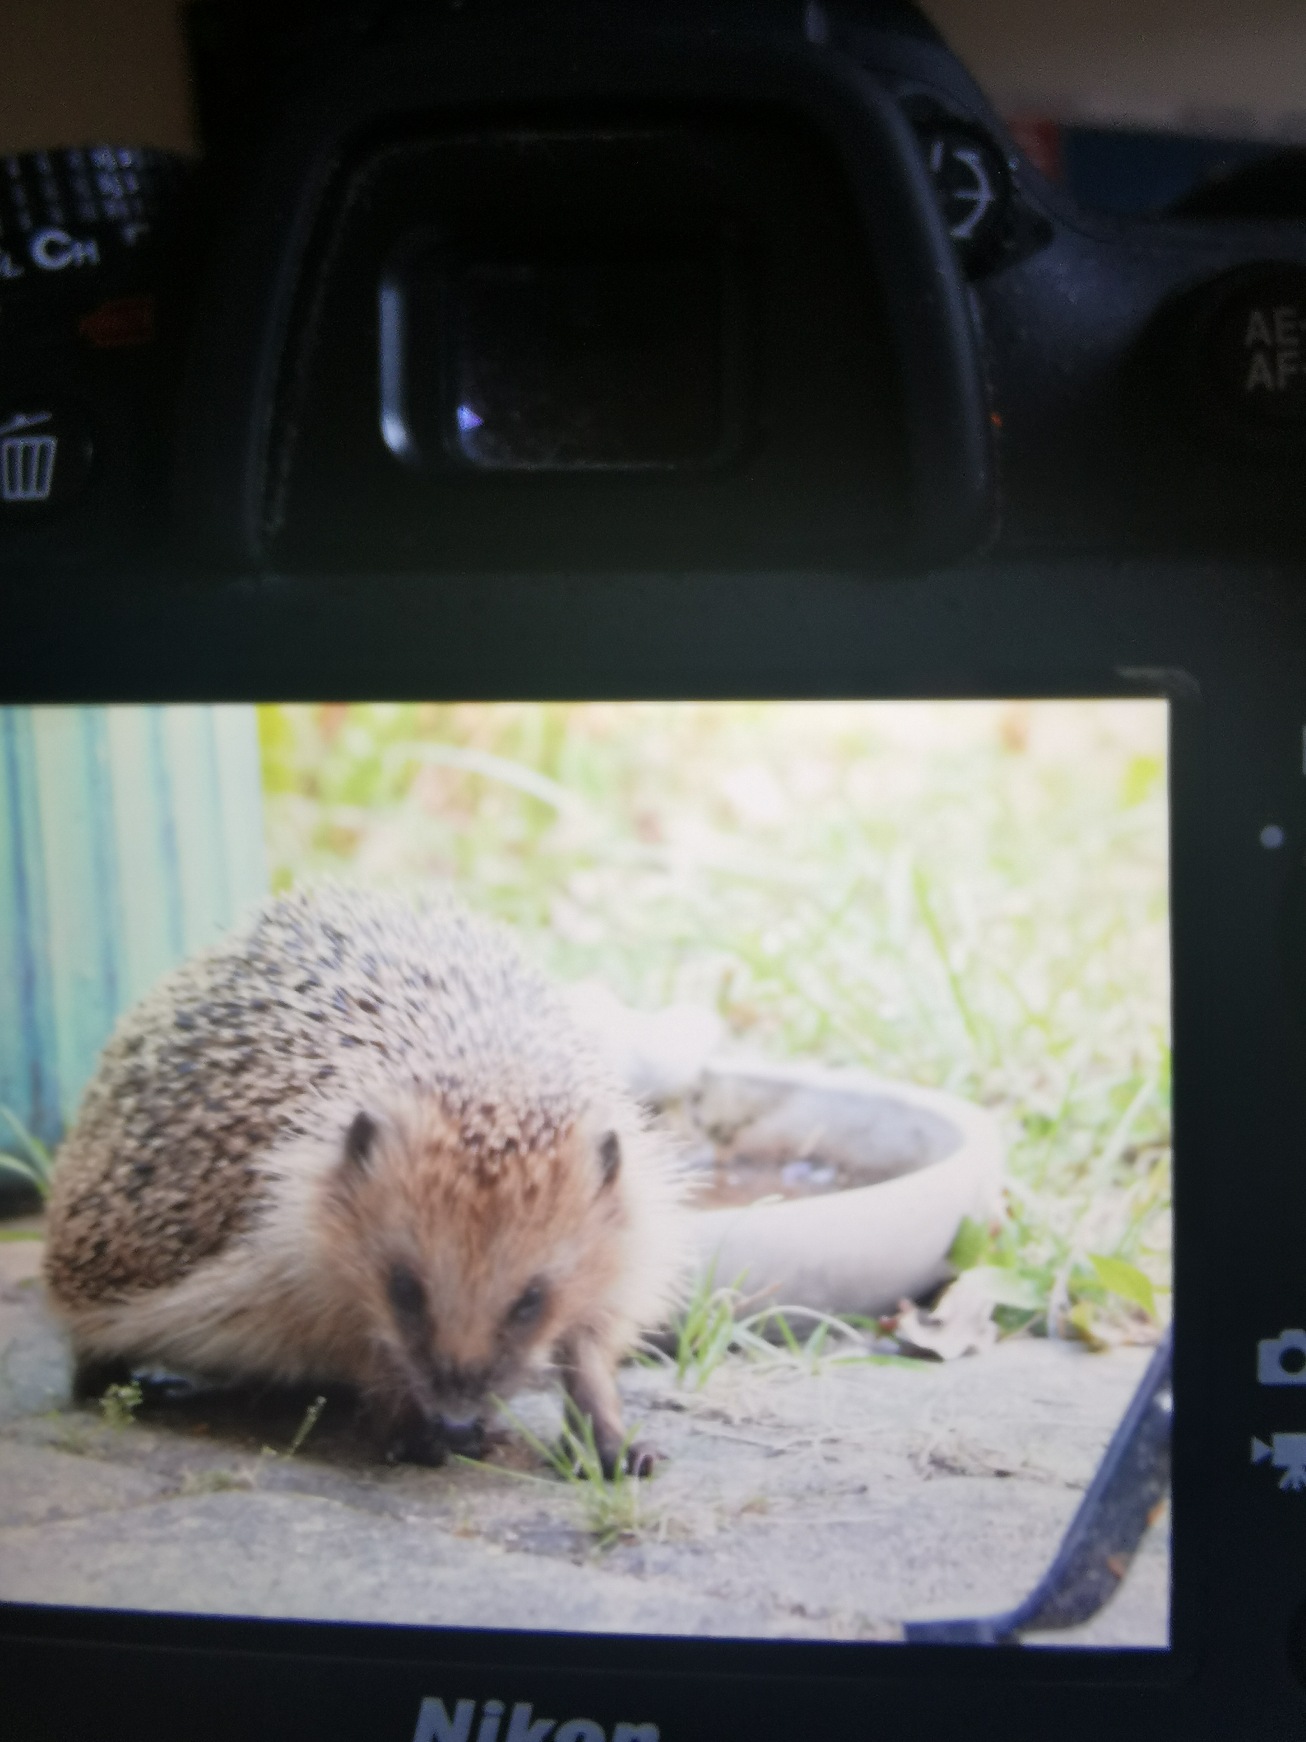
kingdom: Animalia
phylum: Chordata
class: Mammalia
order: Erinaceomorpha
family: Erinaceidae
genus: Erinaceus
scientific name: Erinaceus europaeus
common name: Pindsvin
